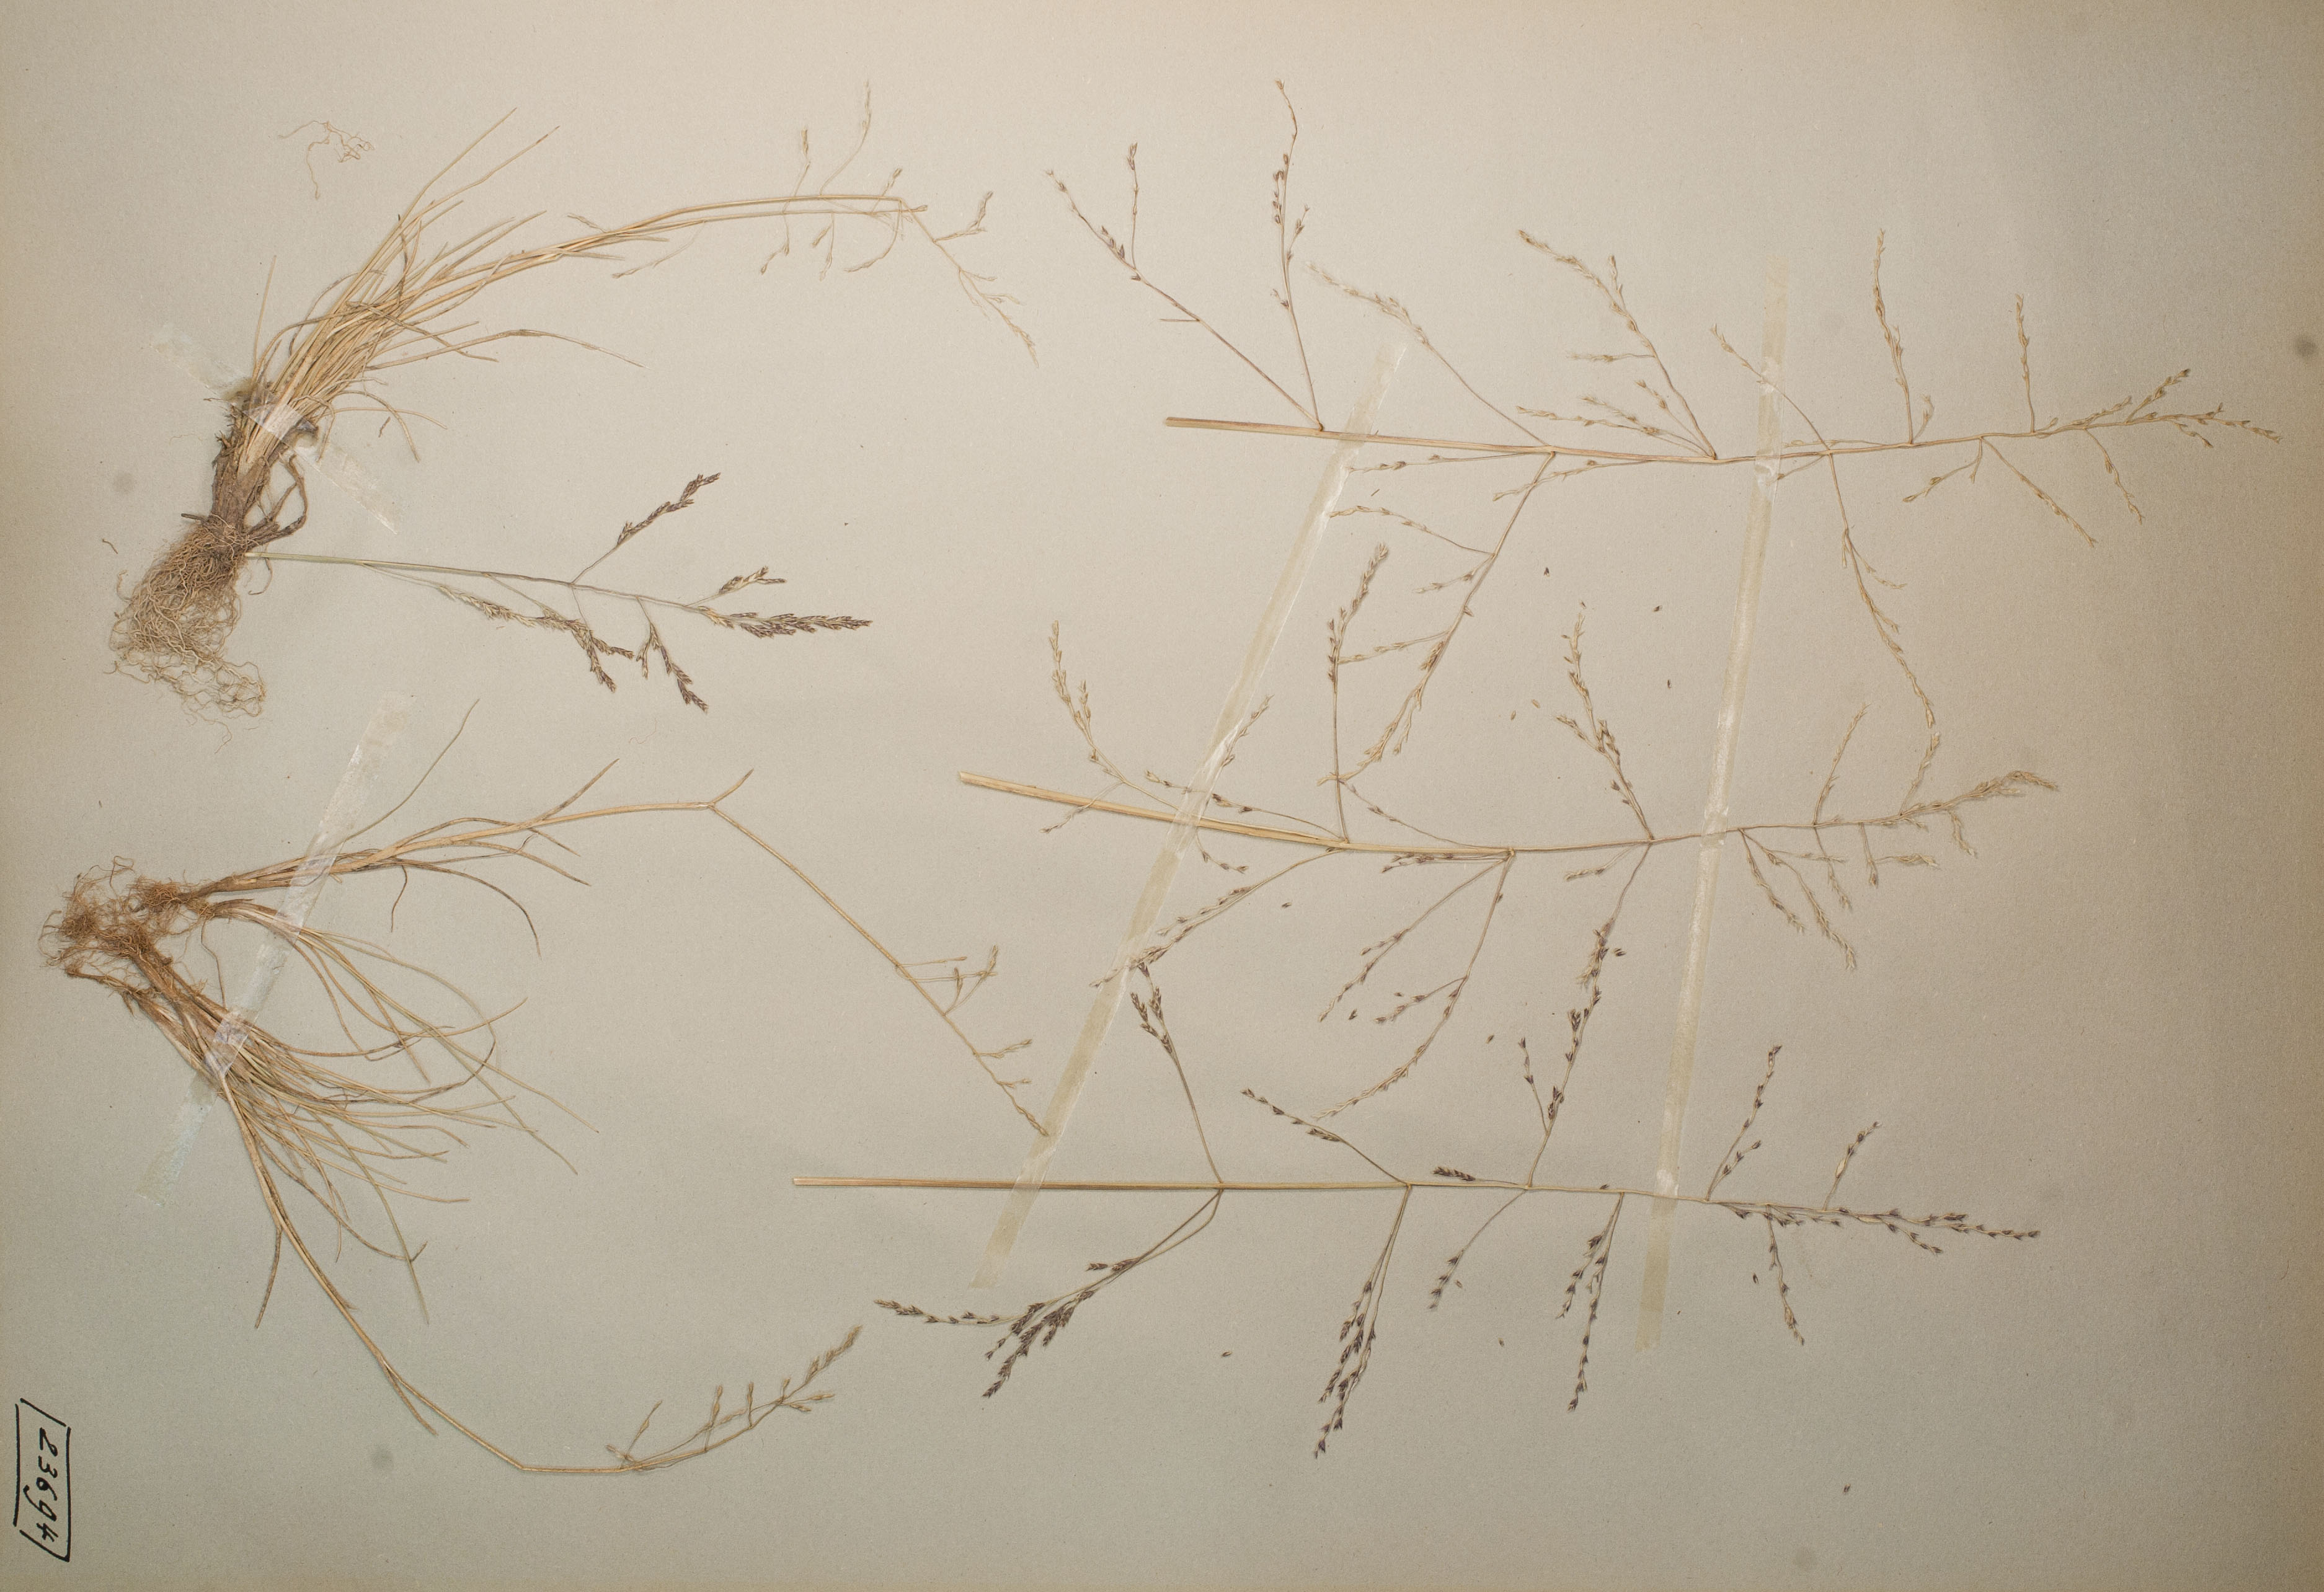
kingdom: Plantae
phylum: Tracheophyta
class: Liliopsida
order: Poales
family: Poaceae
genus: Puccinellia
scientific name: Puccinellia distans
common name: Weeping alkaligrass
